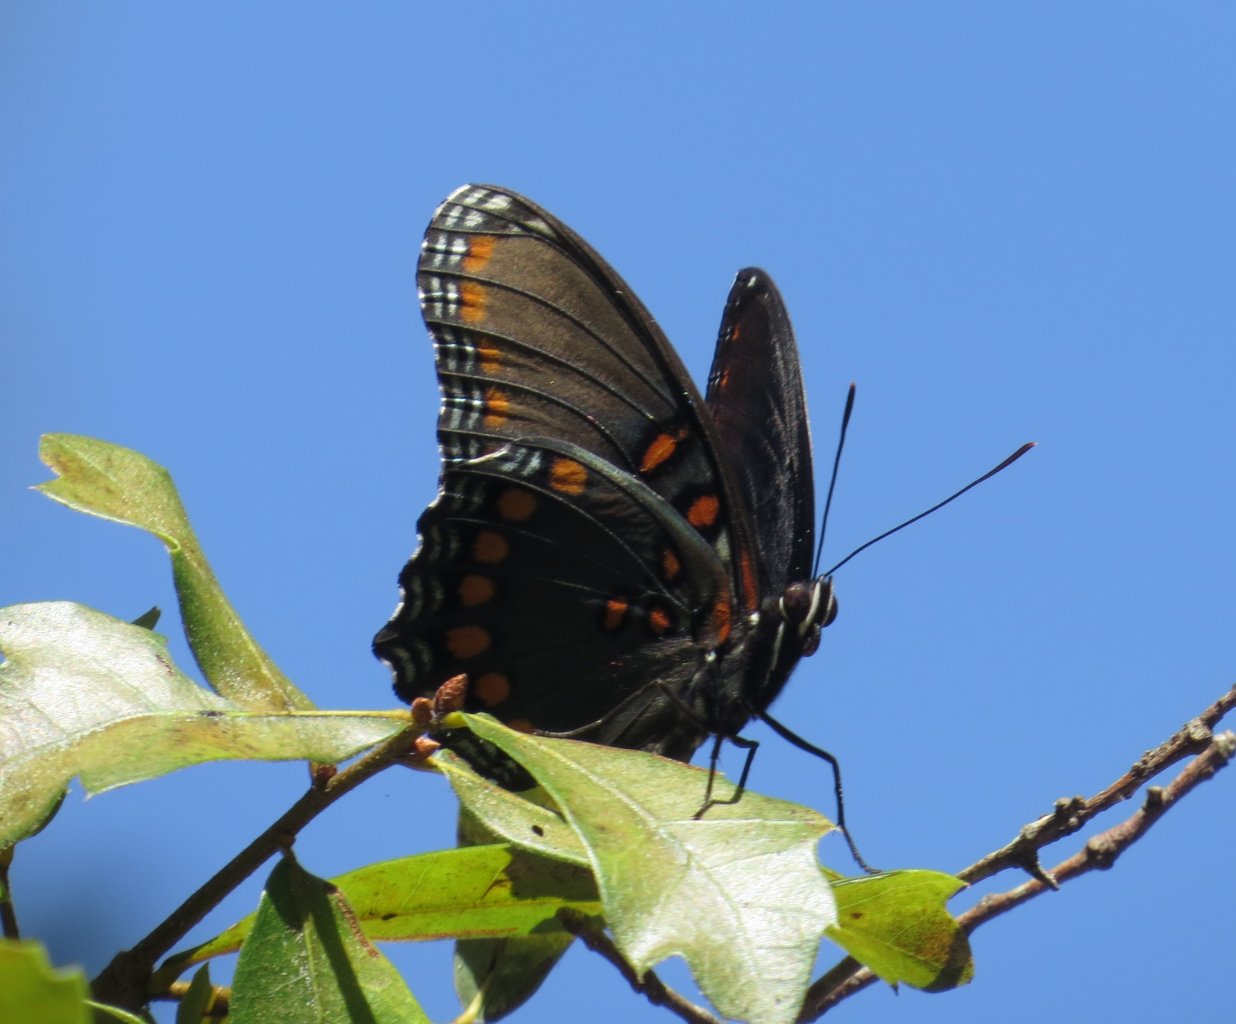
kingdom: Animalia
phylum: Arthropoda
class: Insecta
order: Lepidoptera
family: Nymphalidae
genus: Limenitis
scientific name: Limenitis astyanax
